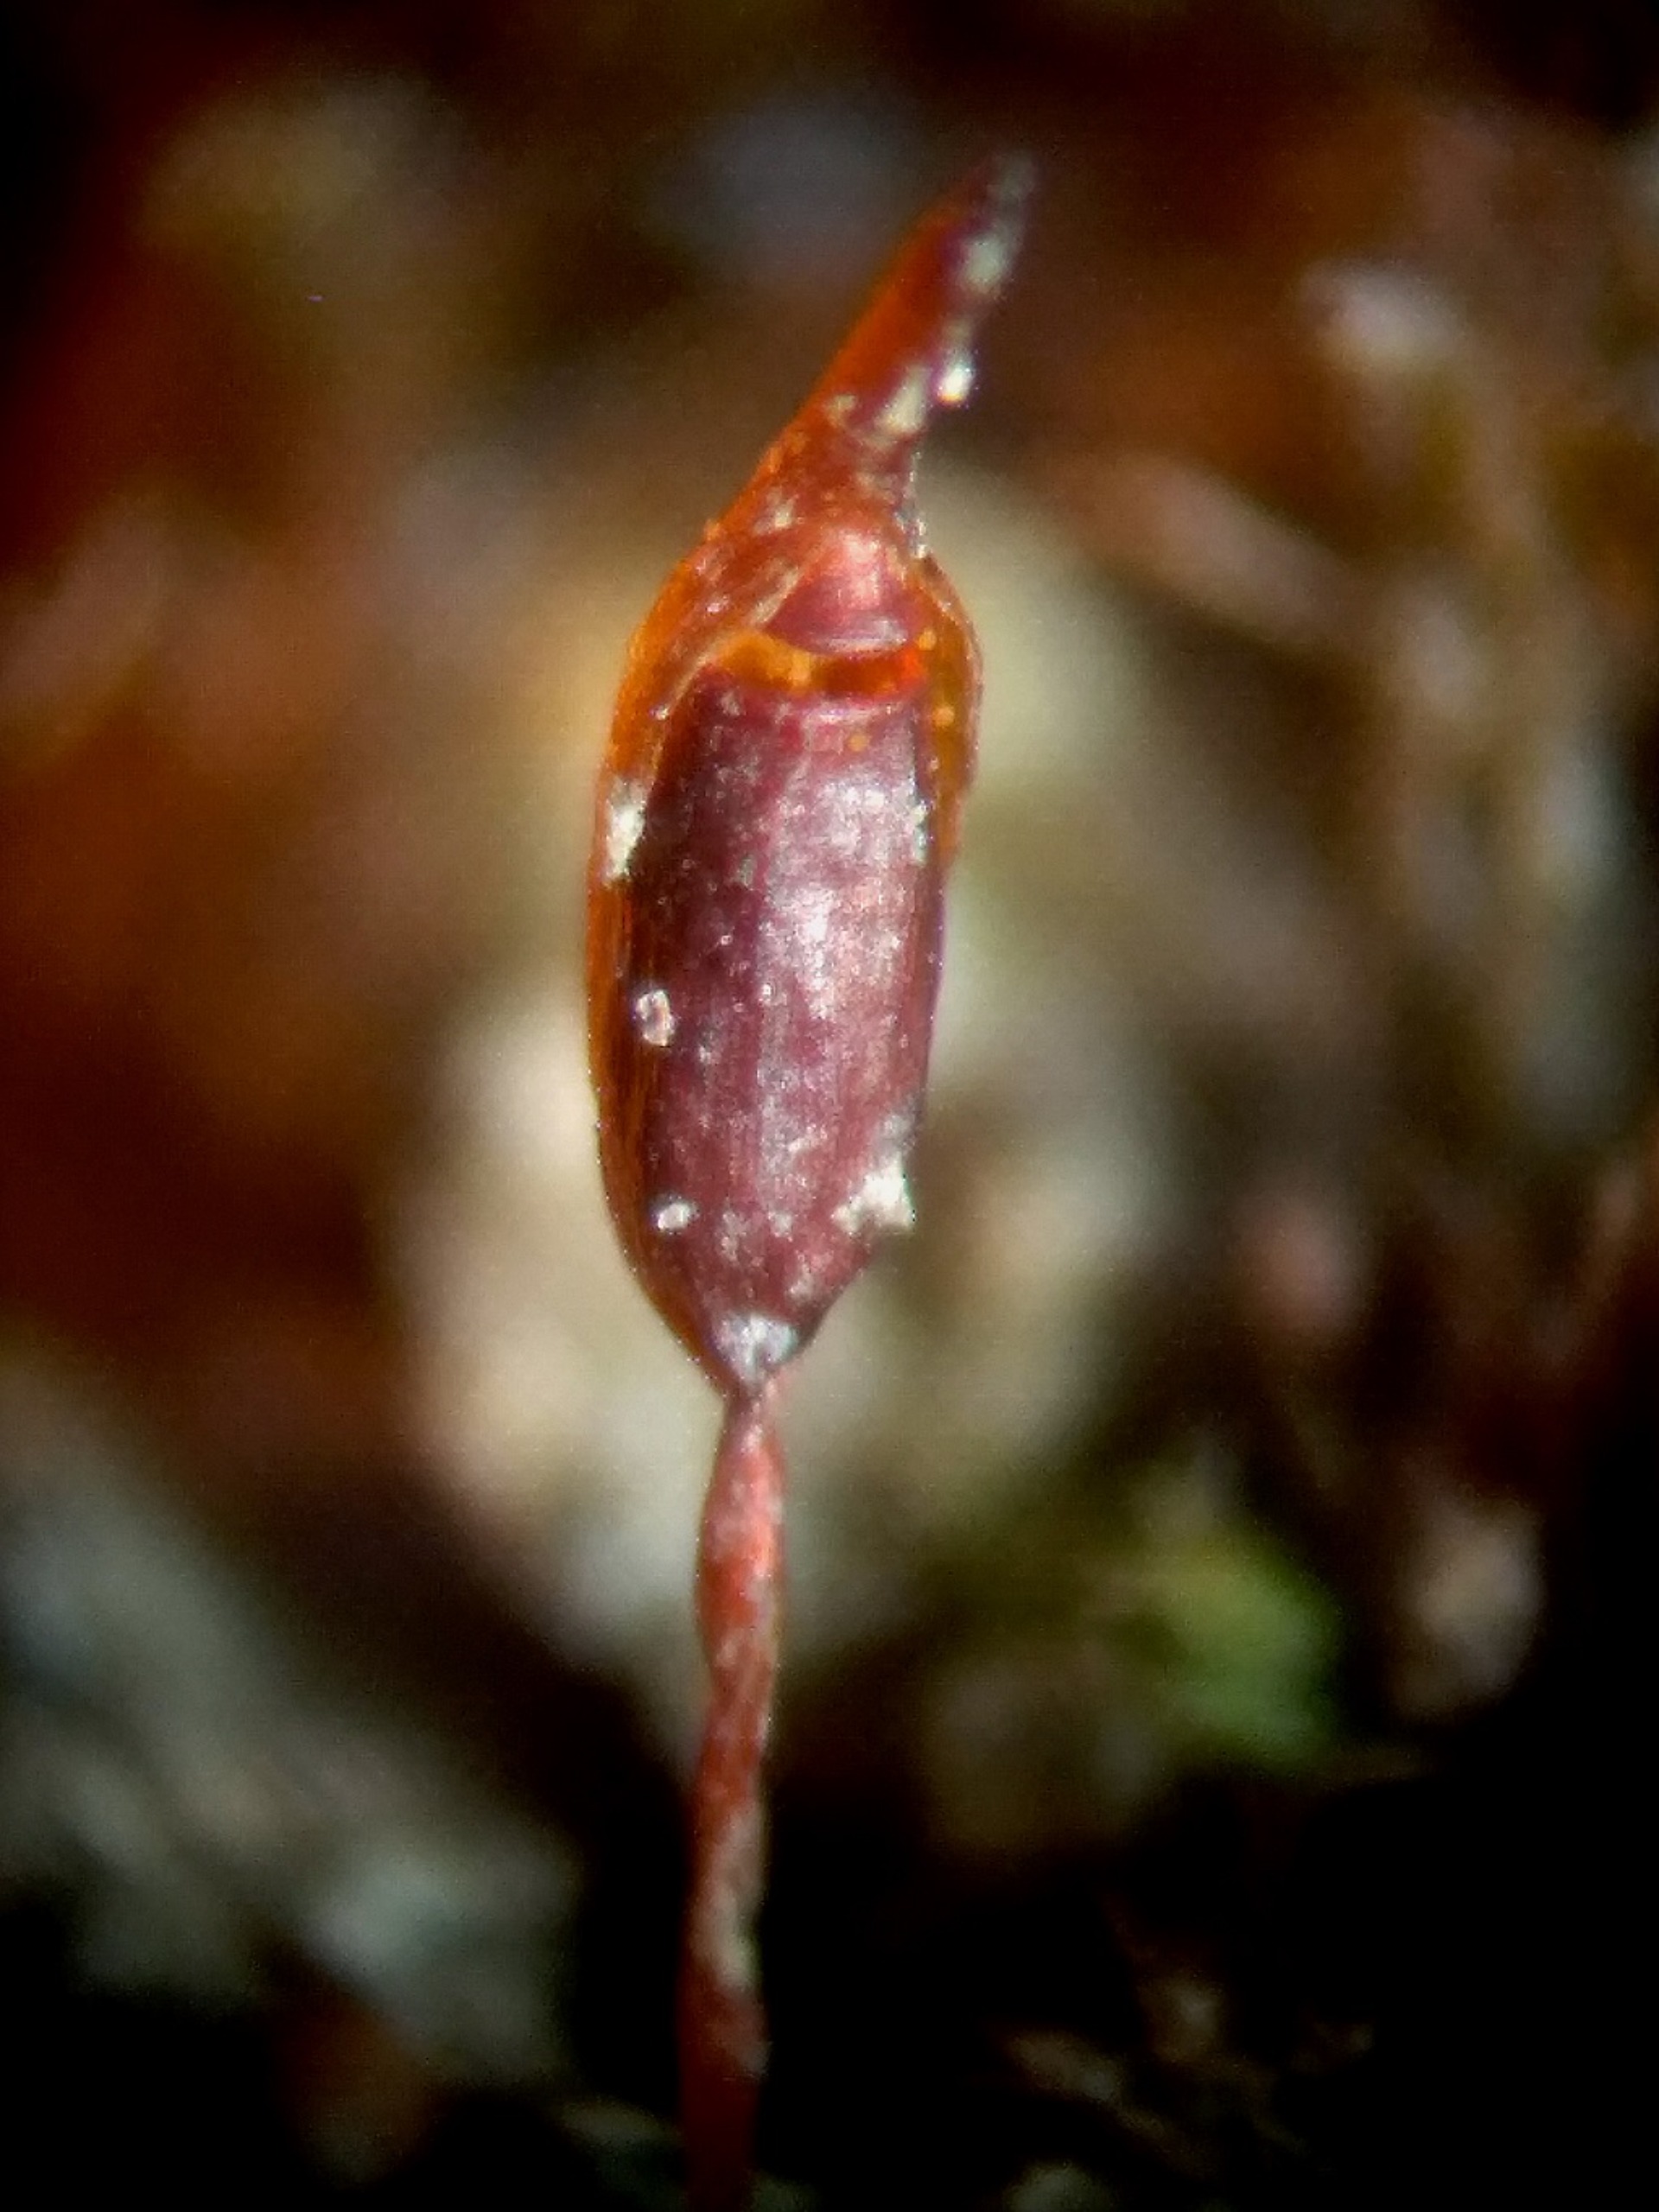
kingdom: Plantae
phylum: Bryophyta
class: Bryopsida
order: Pottiales
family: Pottiaceae
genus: Pterygoneurum
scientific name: Pterygoneurum ovatum
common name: Langhåret vingenerve
